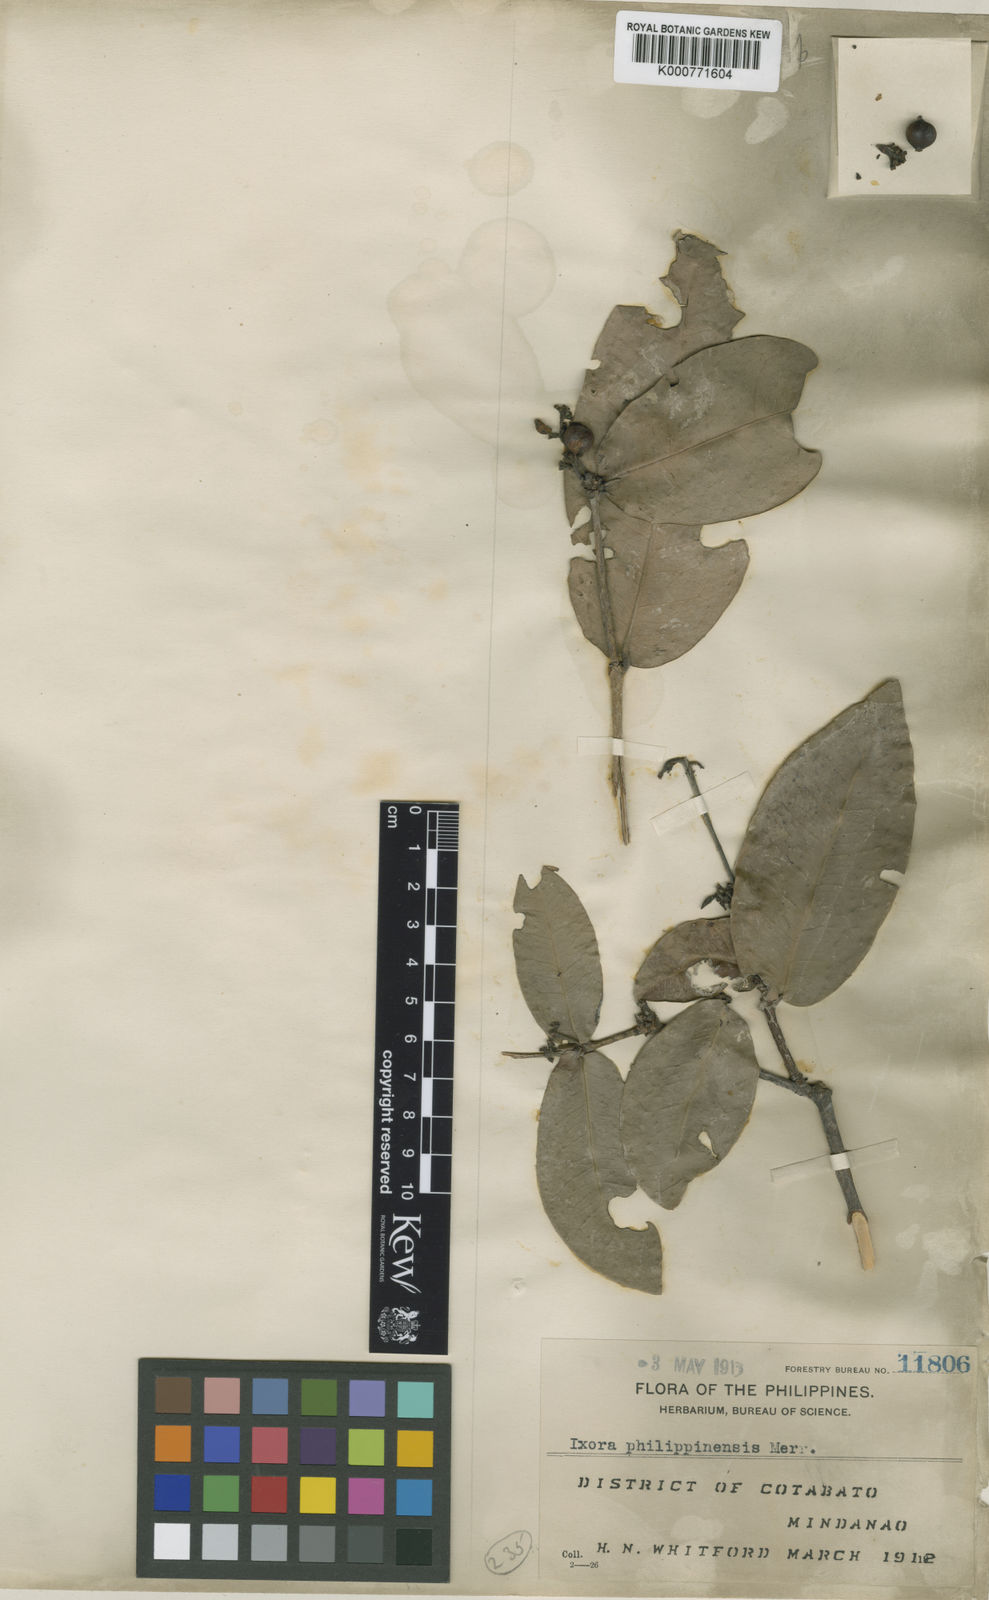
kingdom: Plantae
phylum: Tracheophyta
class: Magnoliopsida
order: Gentianales
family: Rubiaceae
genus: Ixora
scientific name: Ixora philippinensis
